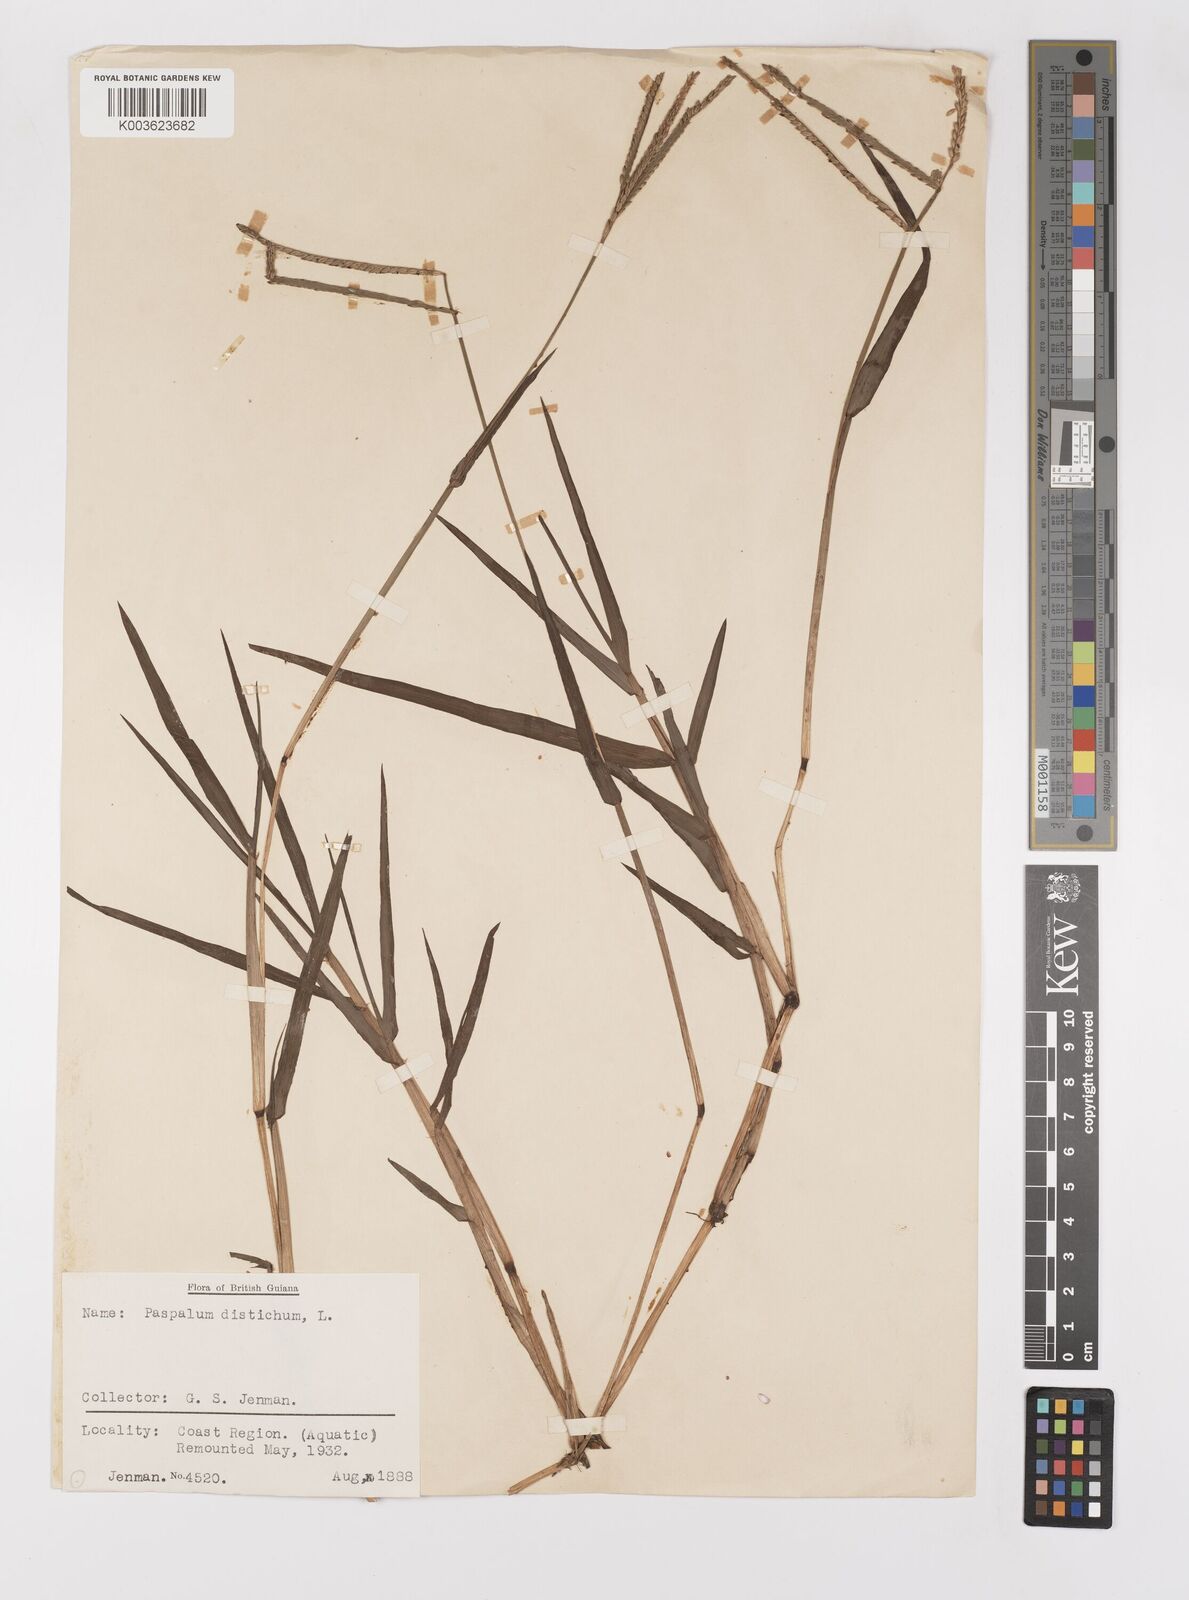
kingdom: Plantae
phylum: Tracheophyta
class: Liliopsida
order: Poales
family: Poaceae
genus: Paspalum
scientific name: Paspalum distichum
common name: Knotgrass
